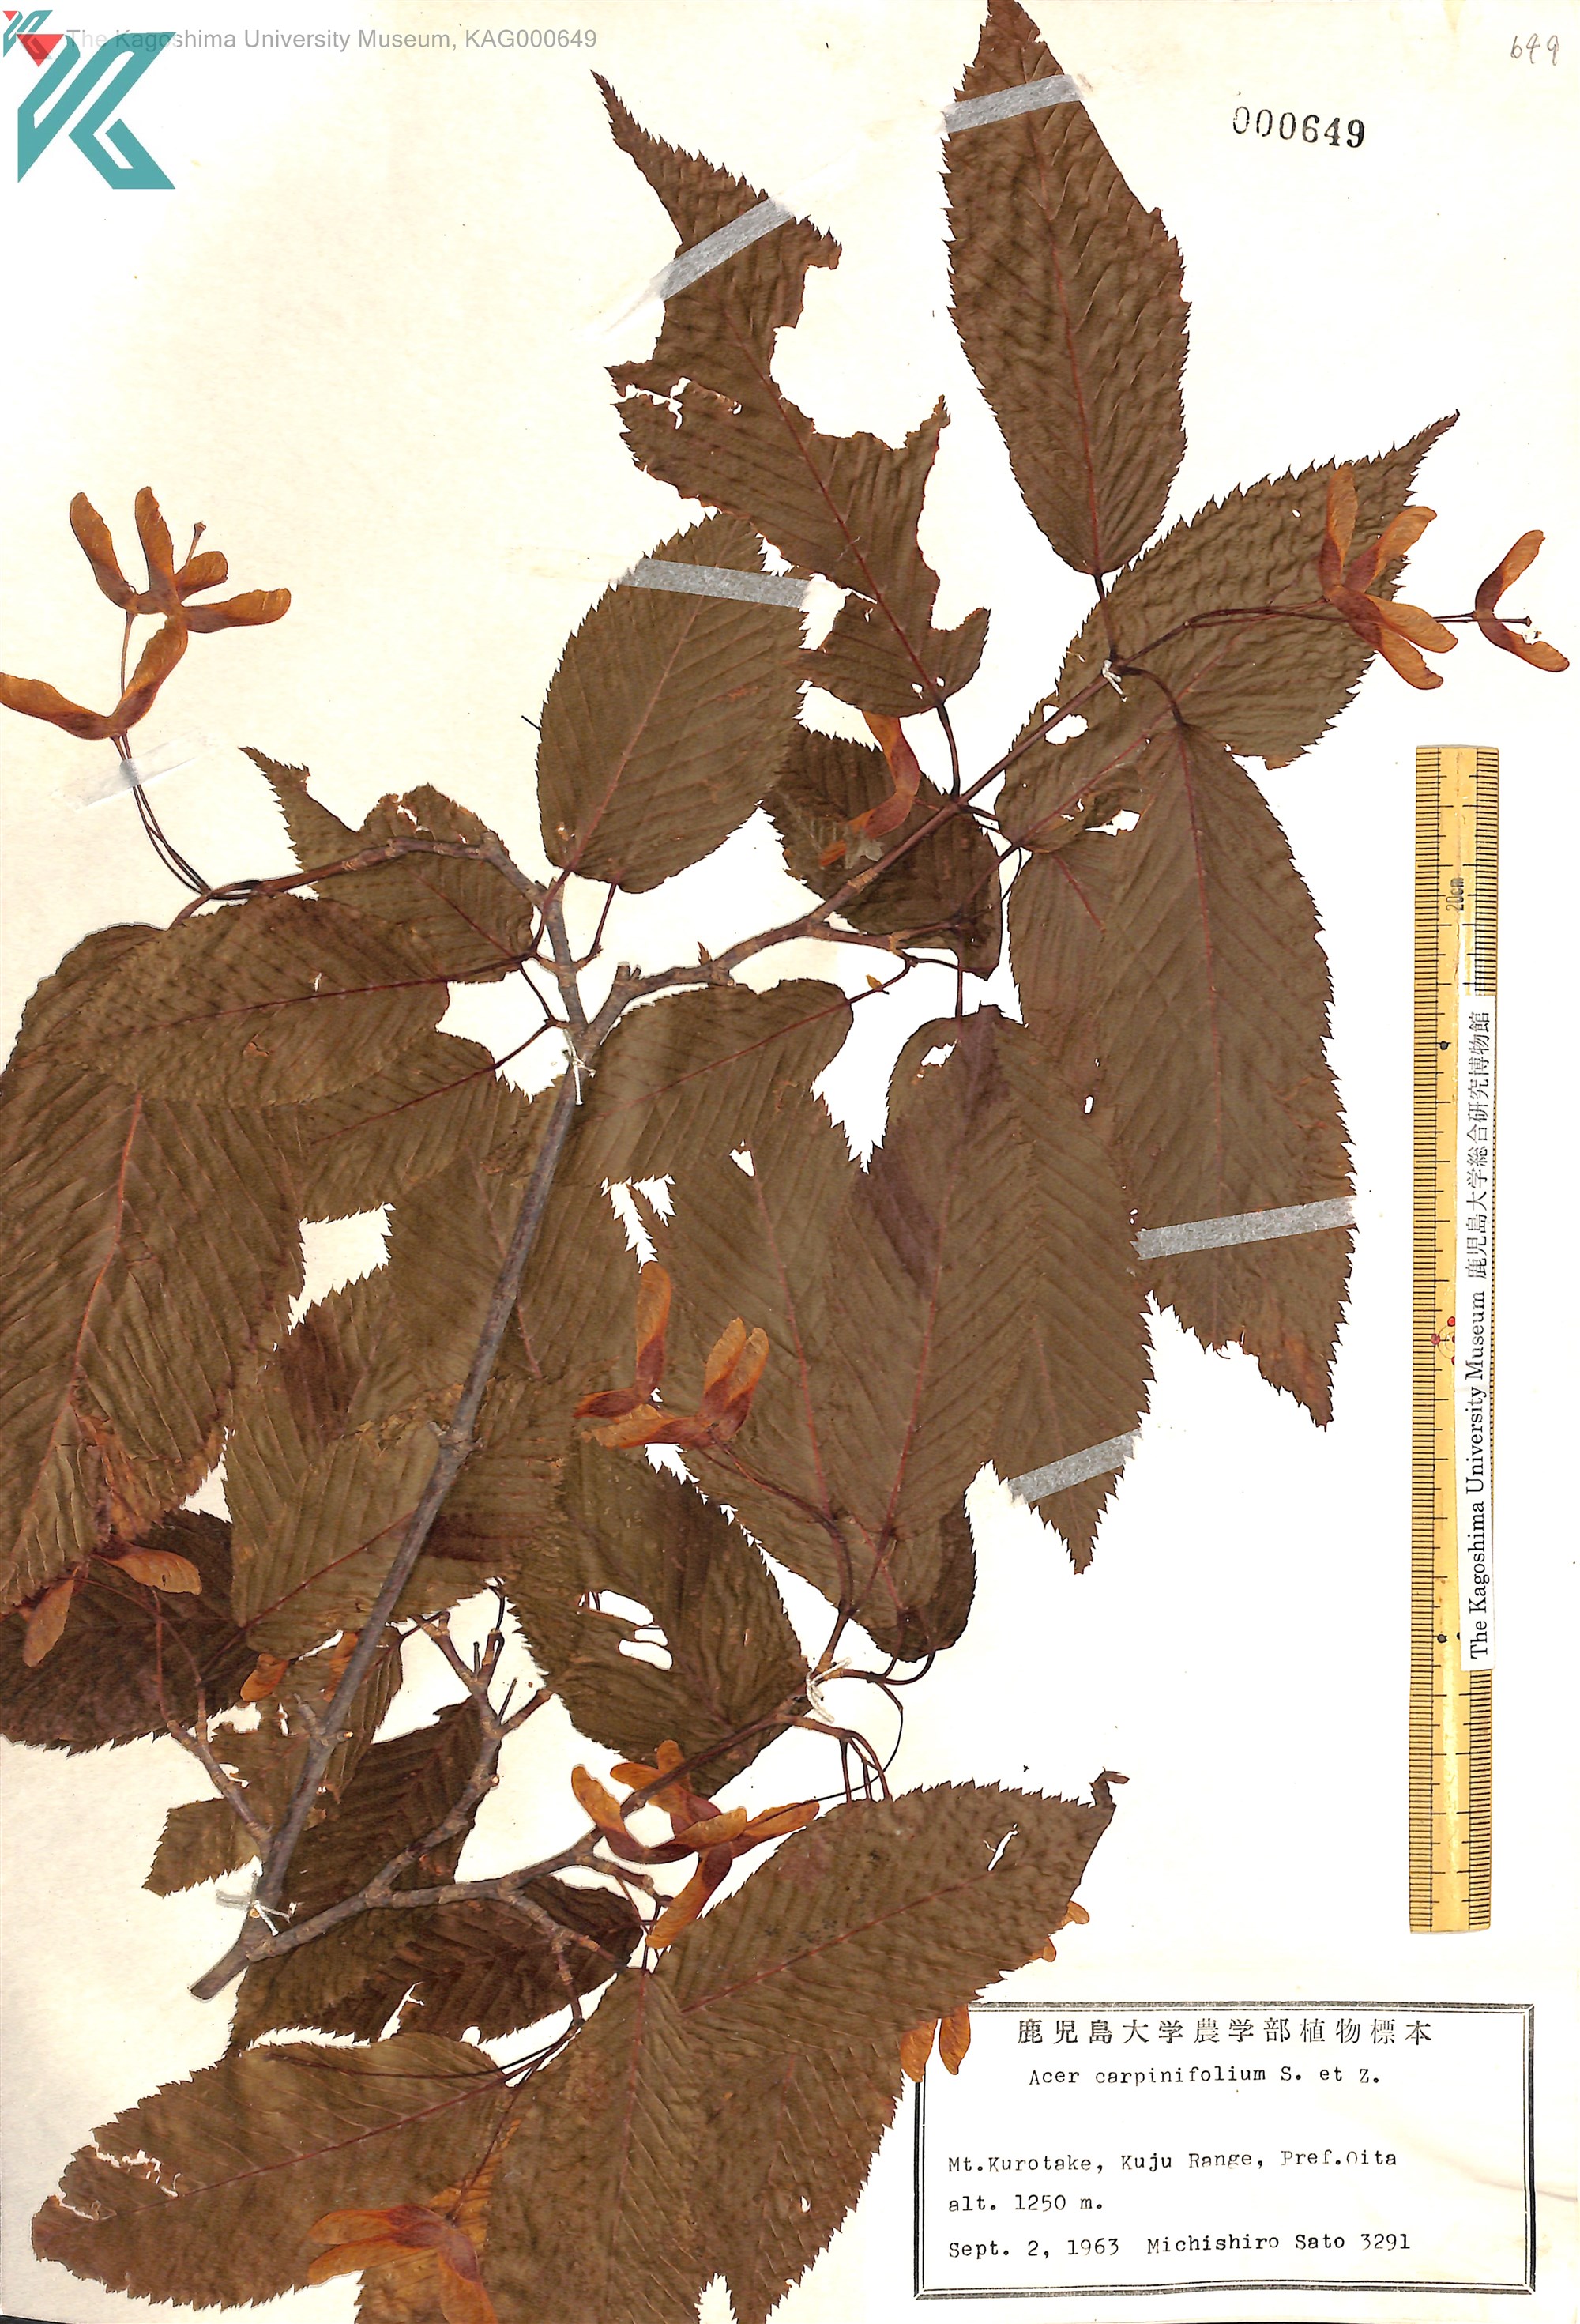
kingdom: Plantae
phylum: Tracheophyta
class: Magnoliopsida
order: Sapindales
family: Sapindaceae
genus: Acer
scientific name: Acer carpinifolium
